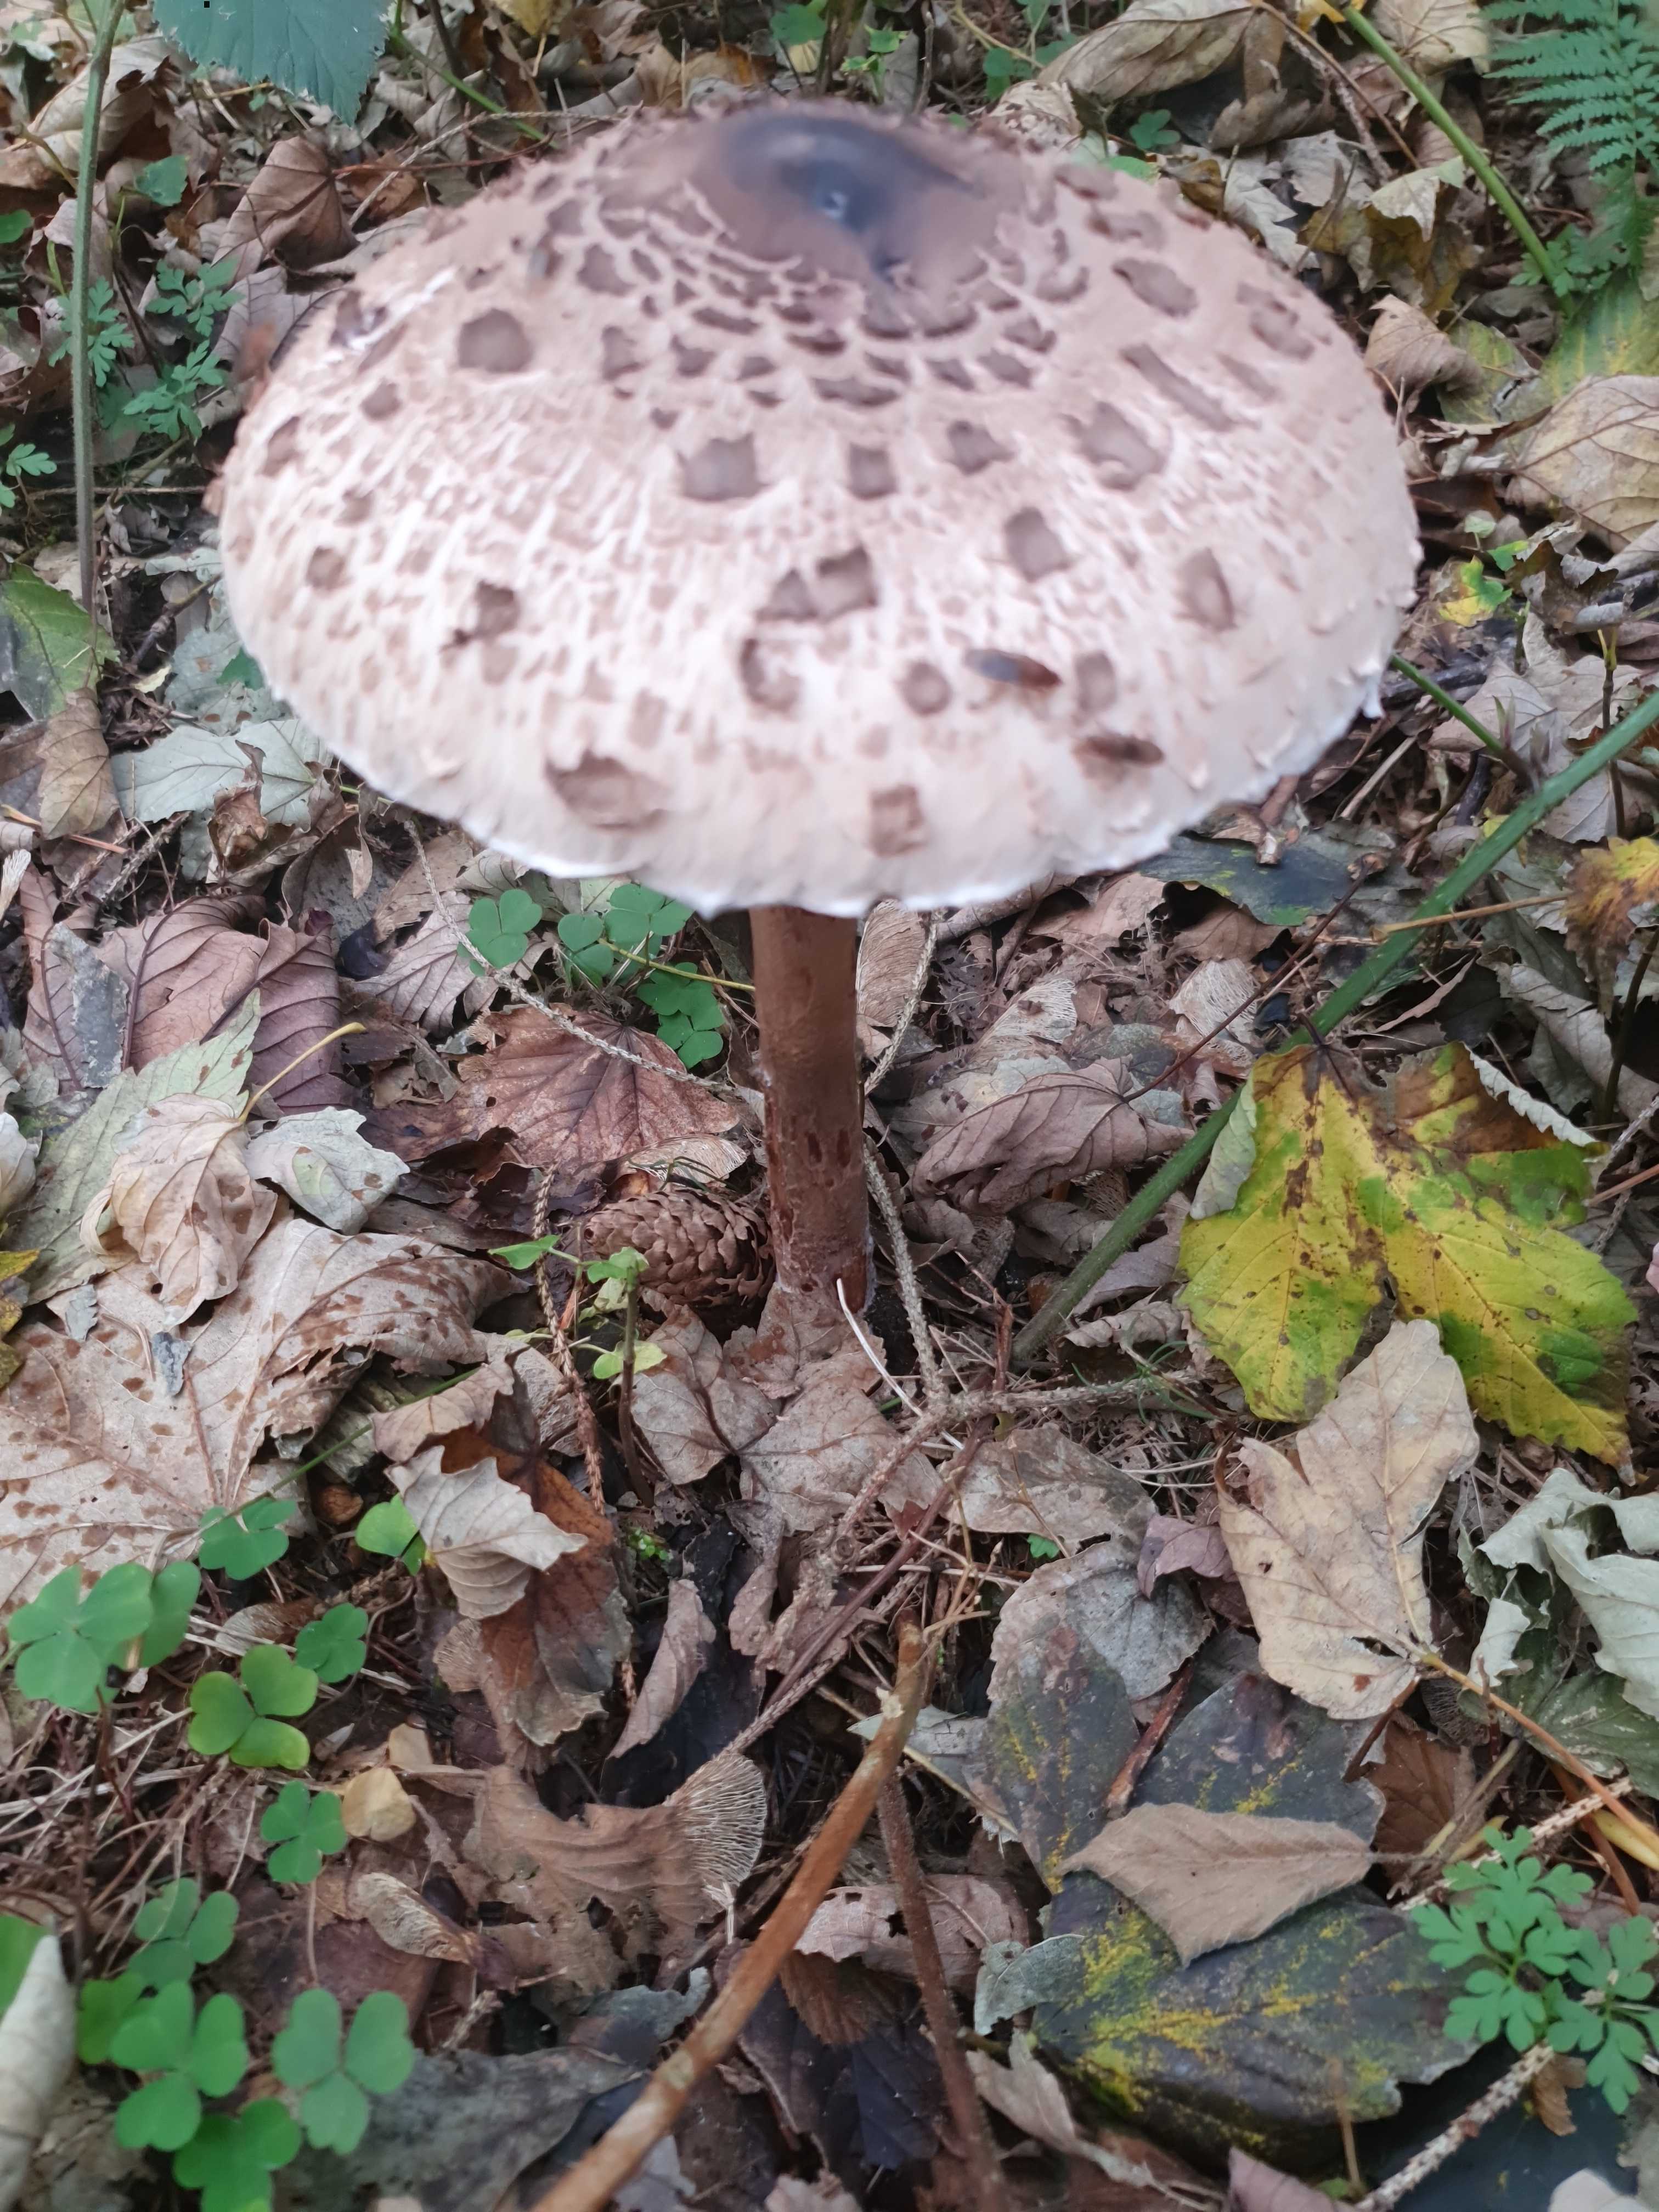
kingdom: Fungi
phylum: Basidiomycota
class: Agaricomycetes
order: Agaricales
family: Agaricaceae
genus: Macrolepiota
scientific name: Macrolepiota fuliginosa
